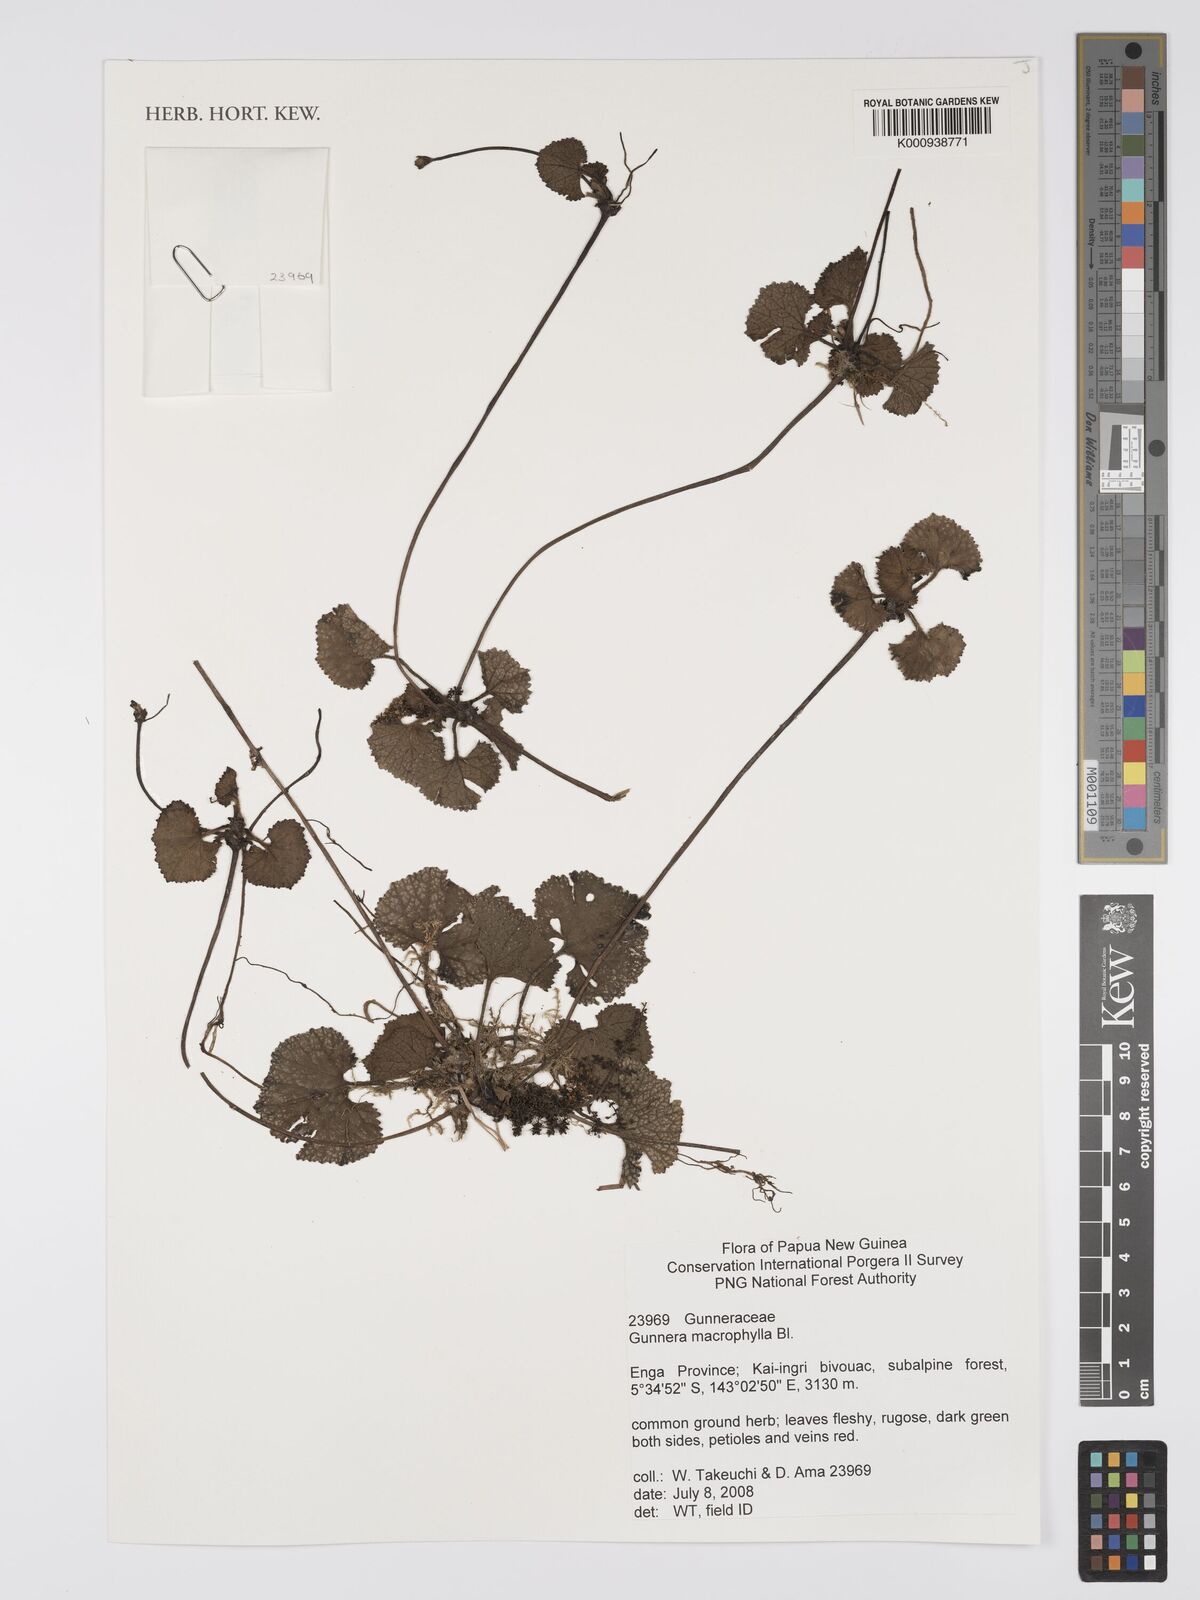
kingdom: Plantae
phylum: Tracheophyta
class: Magnoliopsida
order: Gunnerales
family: Gunneraceae
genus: Gunnera
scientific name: Gunnera macrophylla
